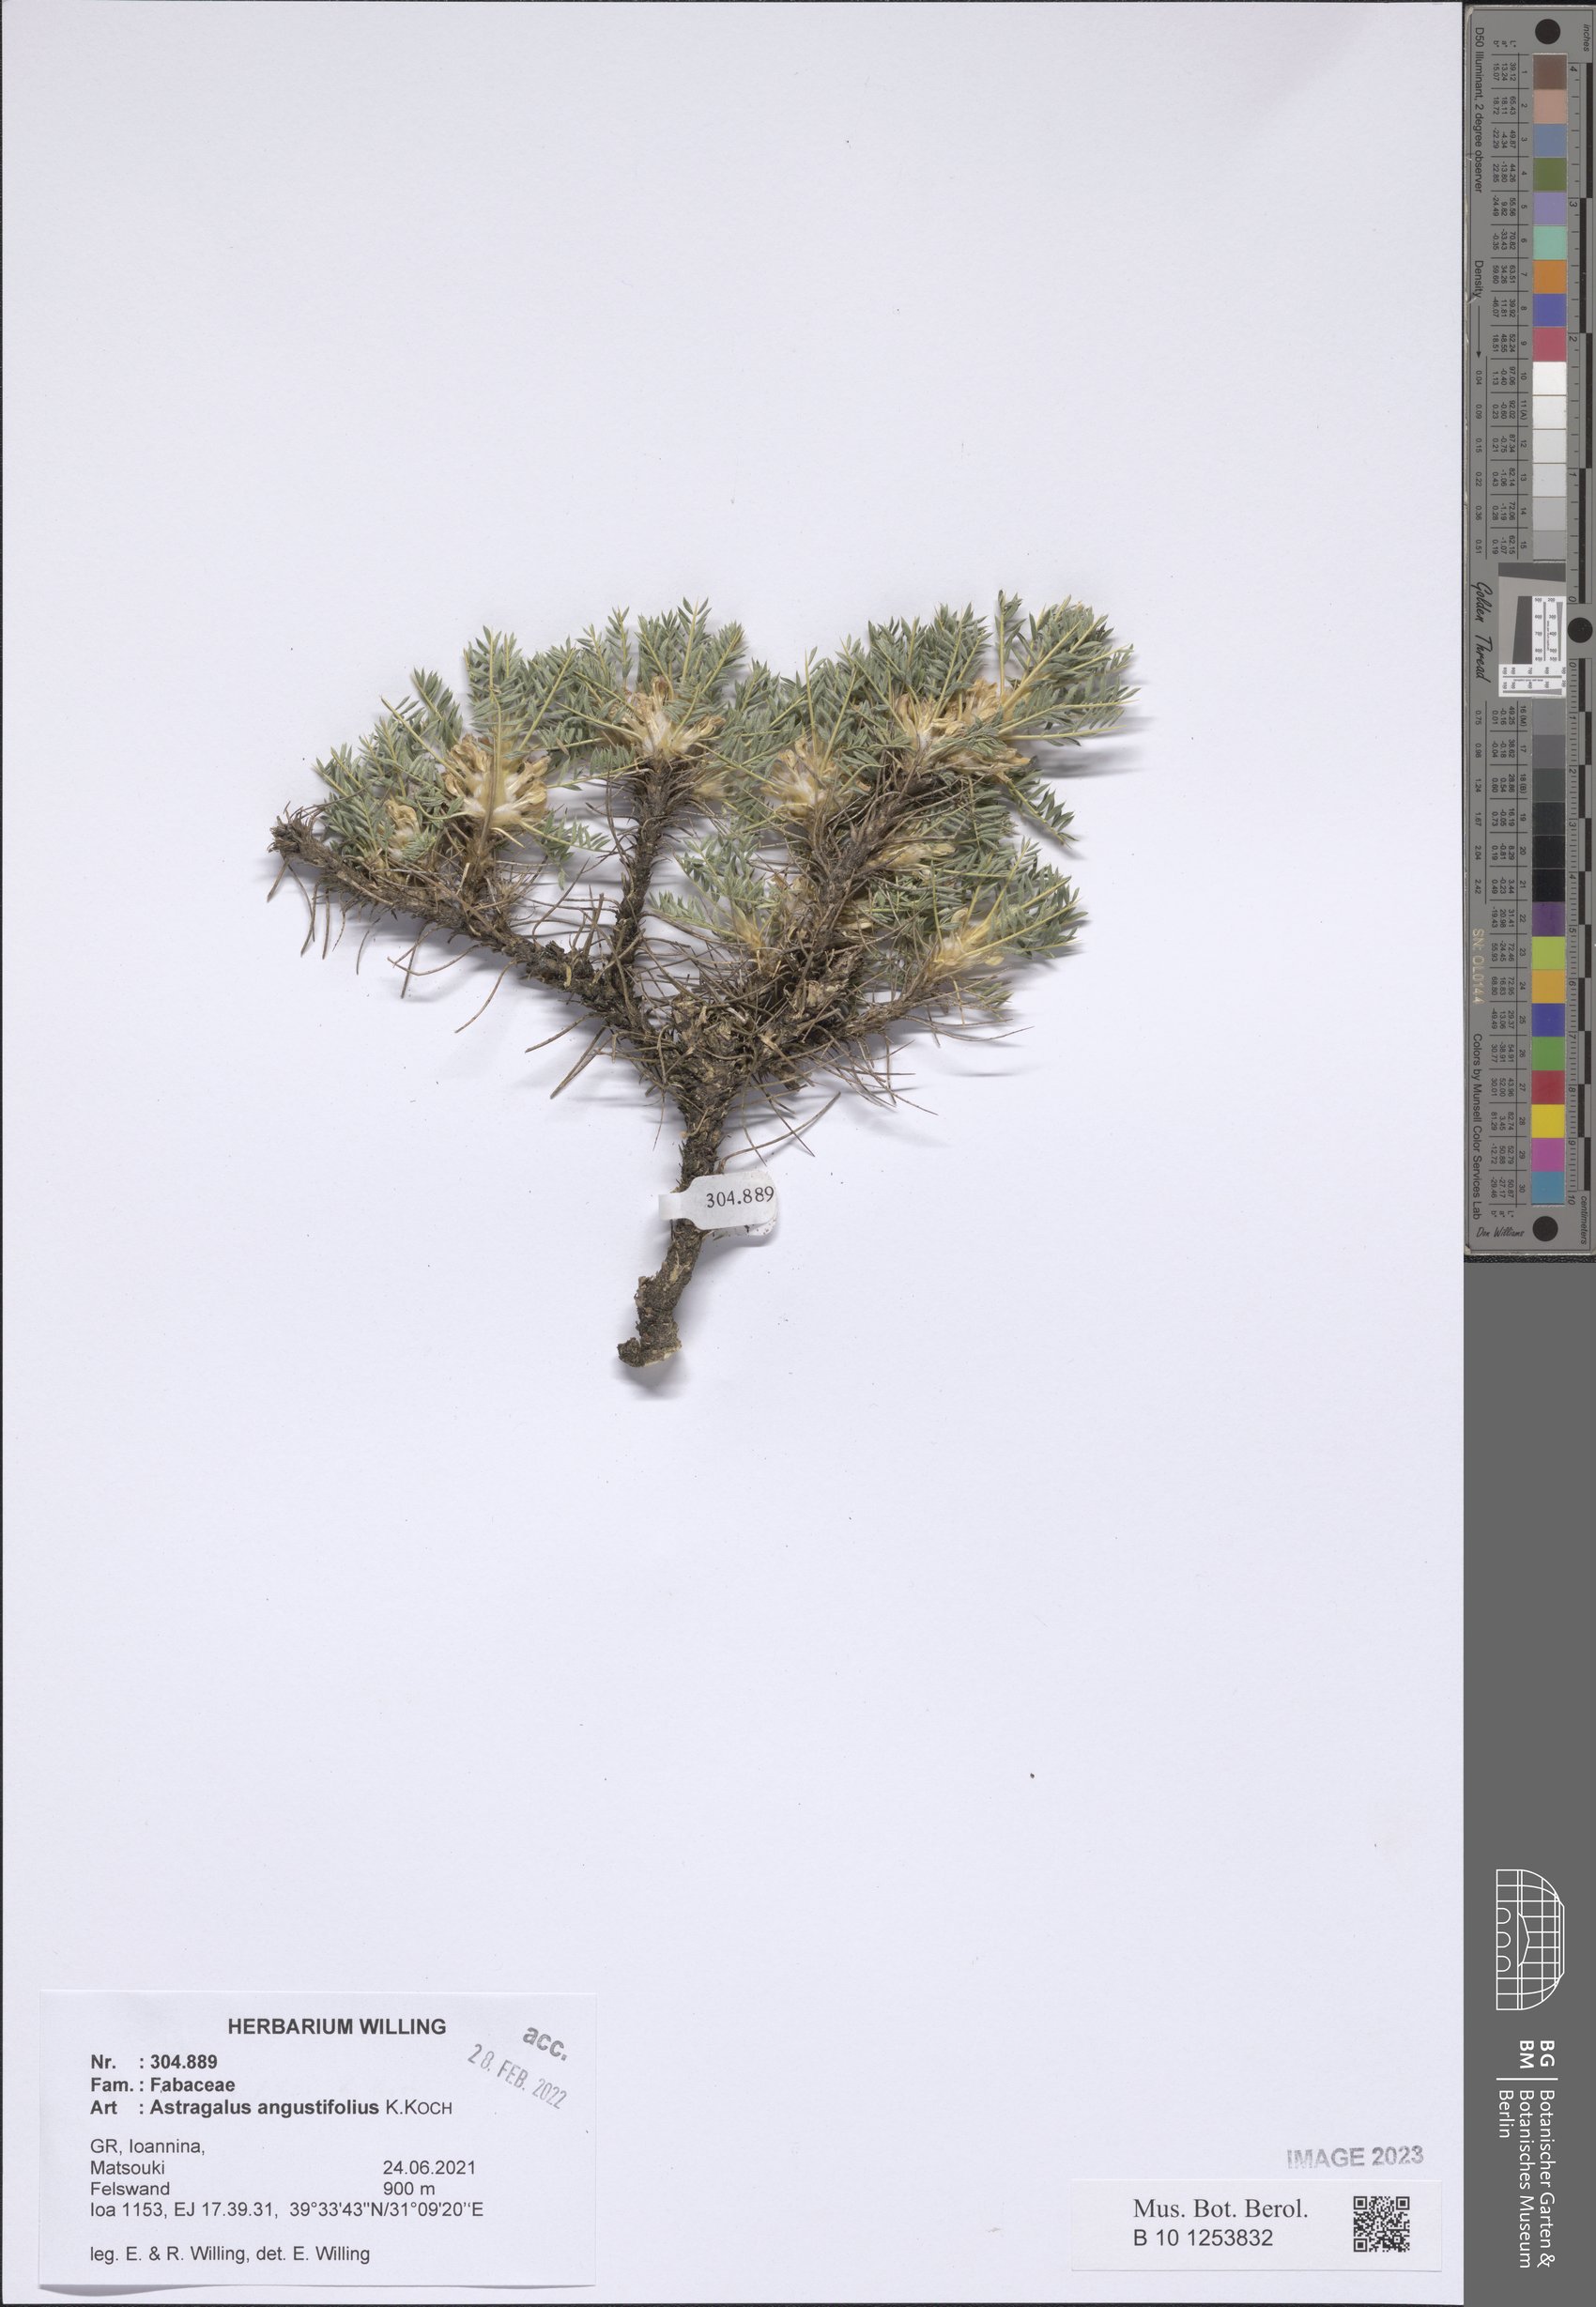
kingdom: Plantae
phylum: Tracheophyta
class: Magnoliopsida
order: Fabales
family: Fabaceae
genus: Astragalus
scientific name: Astragalus angustifolius
